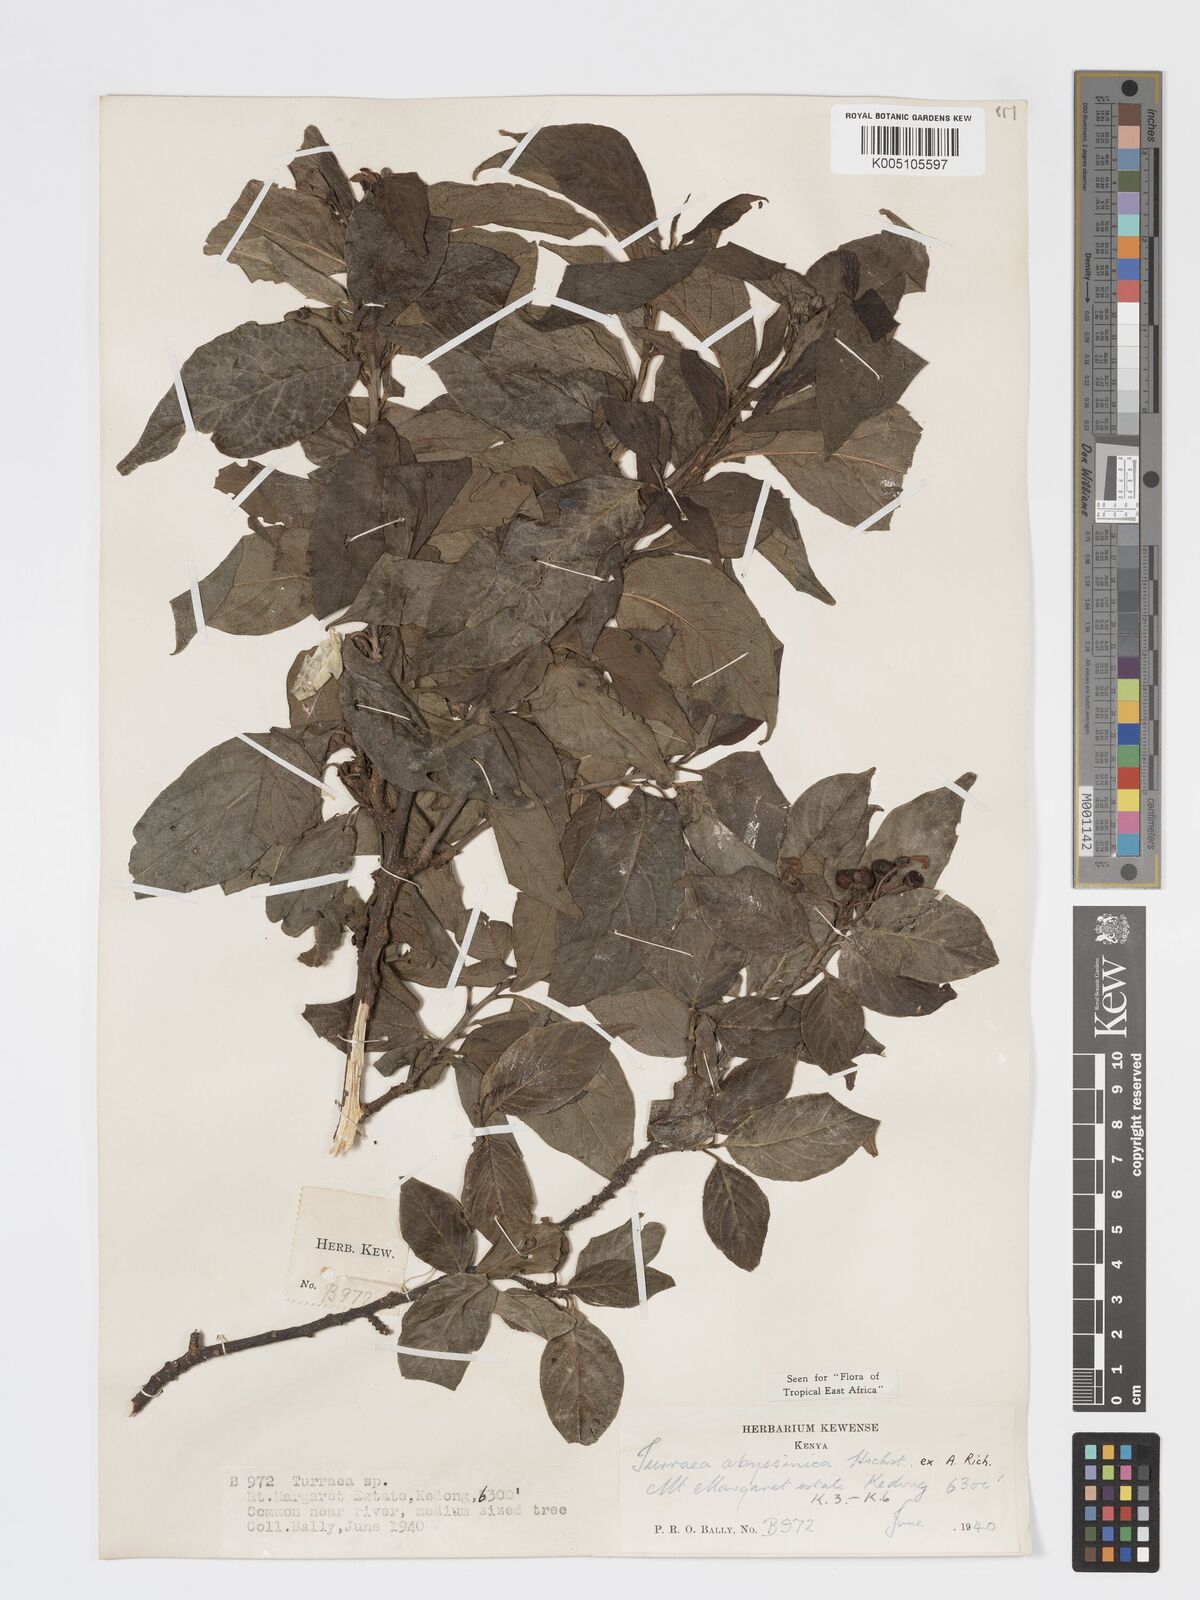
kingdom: Plantae
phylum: Tracheophyta
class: Magnoliopsida
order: Sapindales
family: Meliaceae
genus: Turraea
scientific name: Turraea abyssinica
